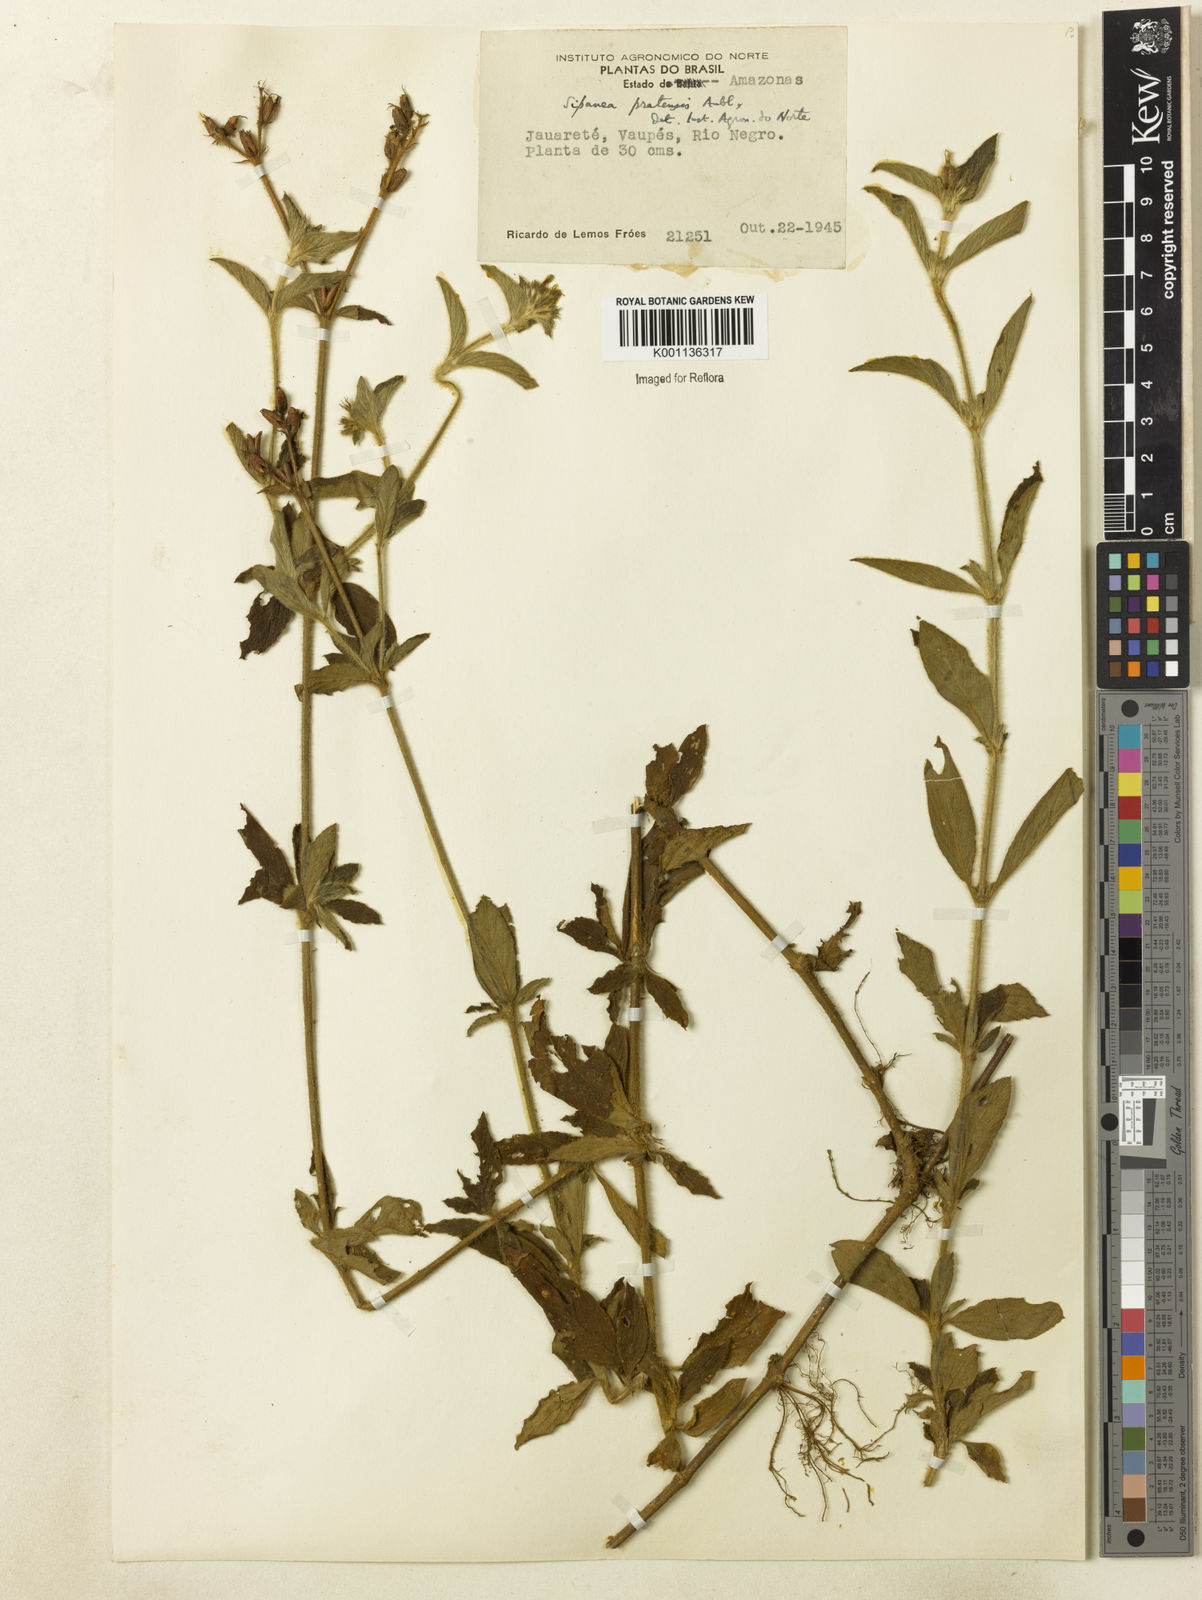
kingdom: Plantae
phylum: Tracheophyta
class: Magnoliopsida
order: Gentianales
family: Rubiaceae
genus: Sipanea
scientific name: Sipanea pratensis
